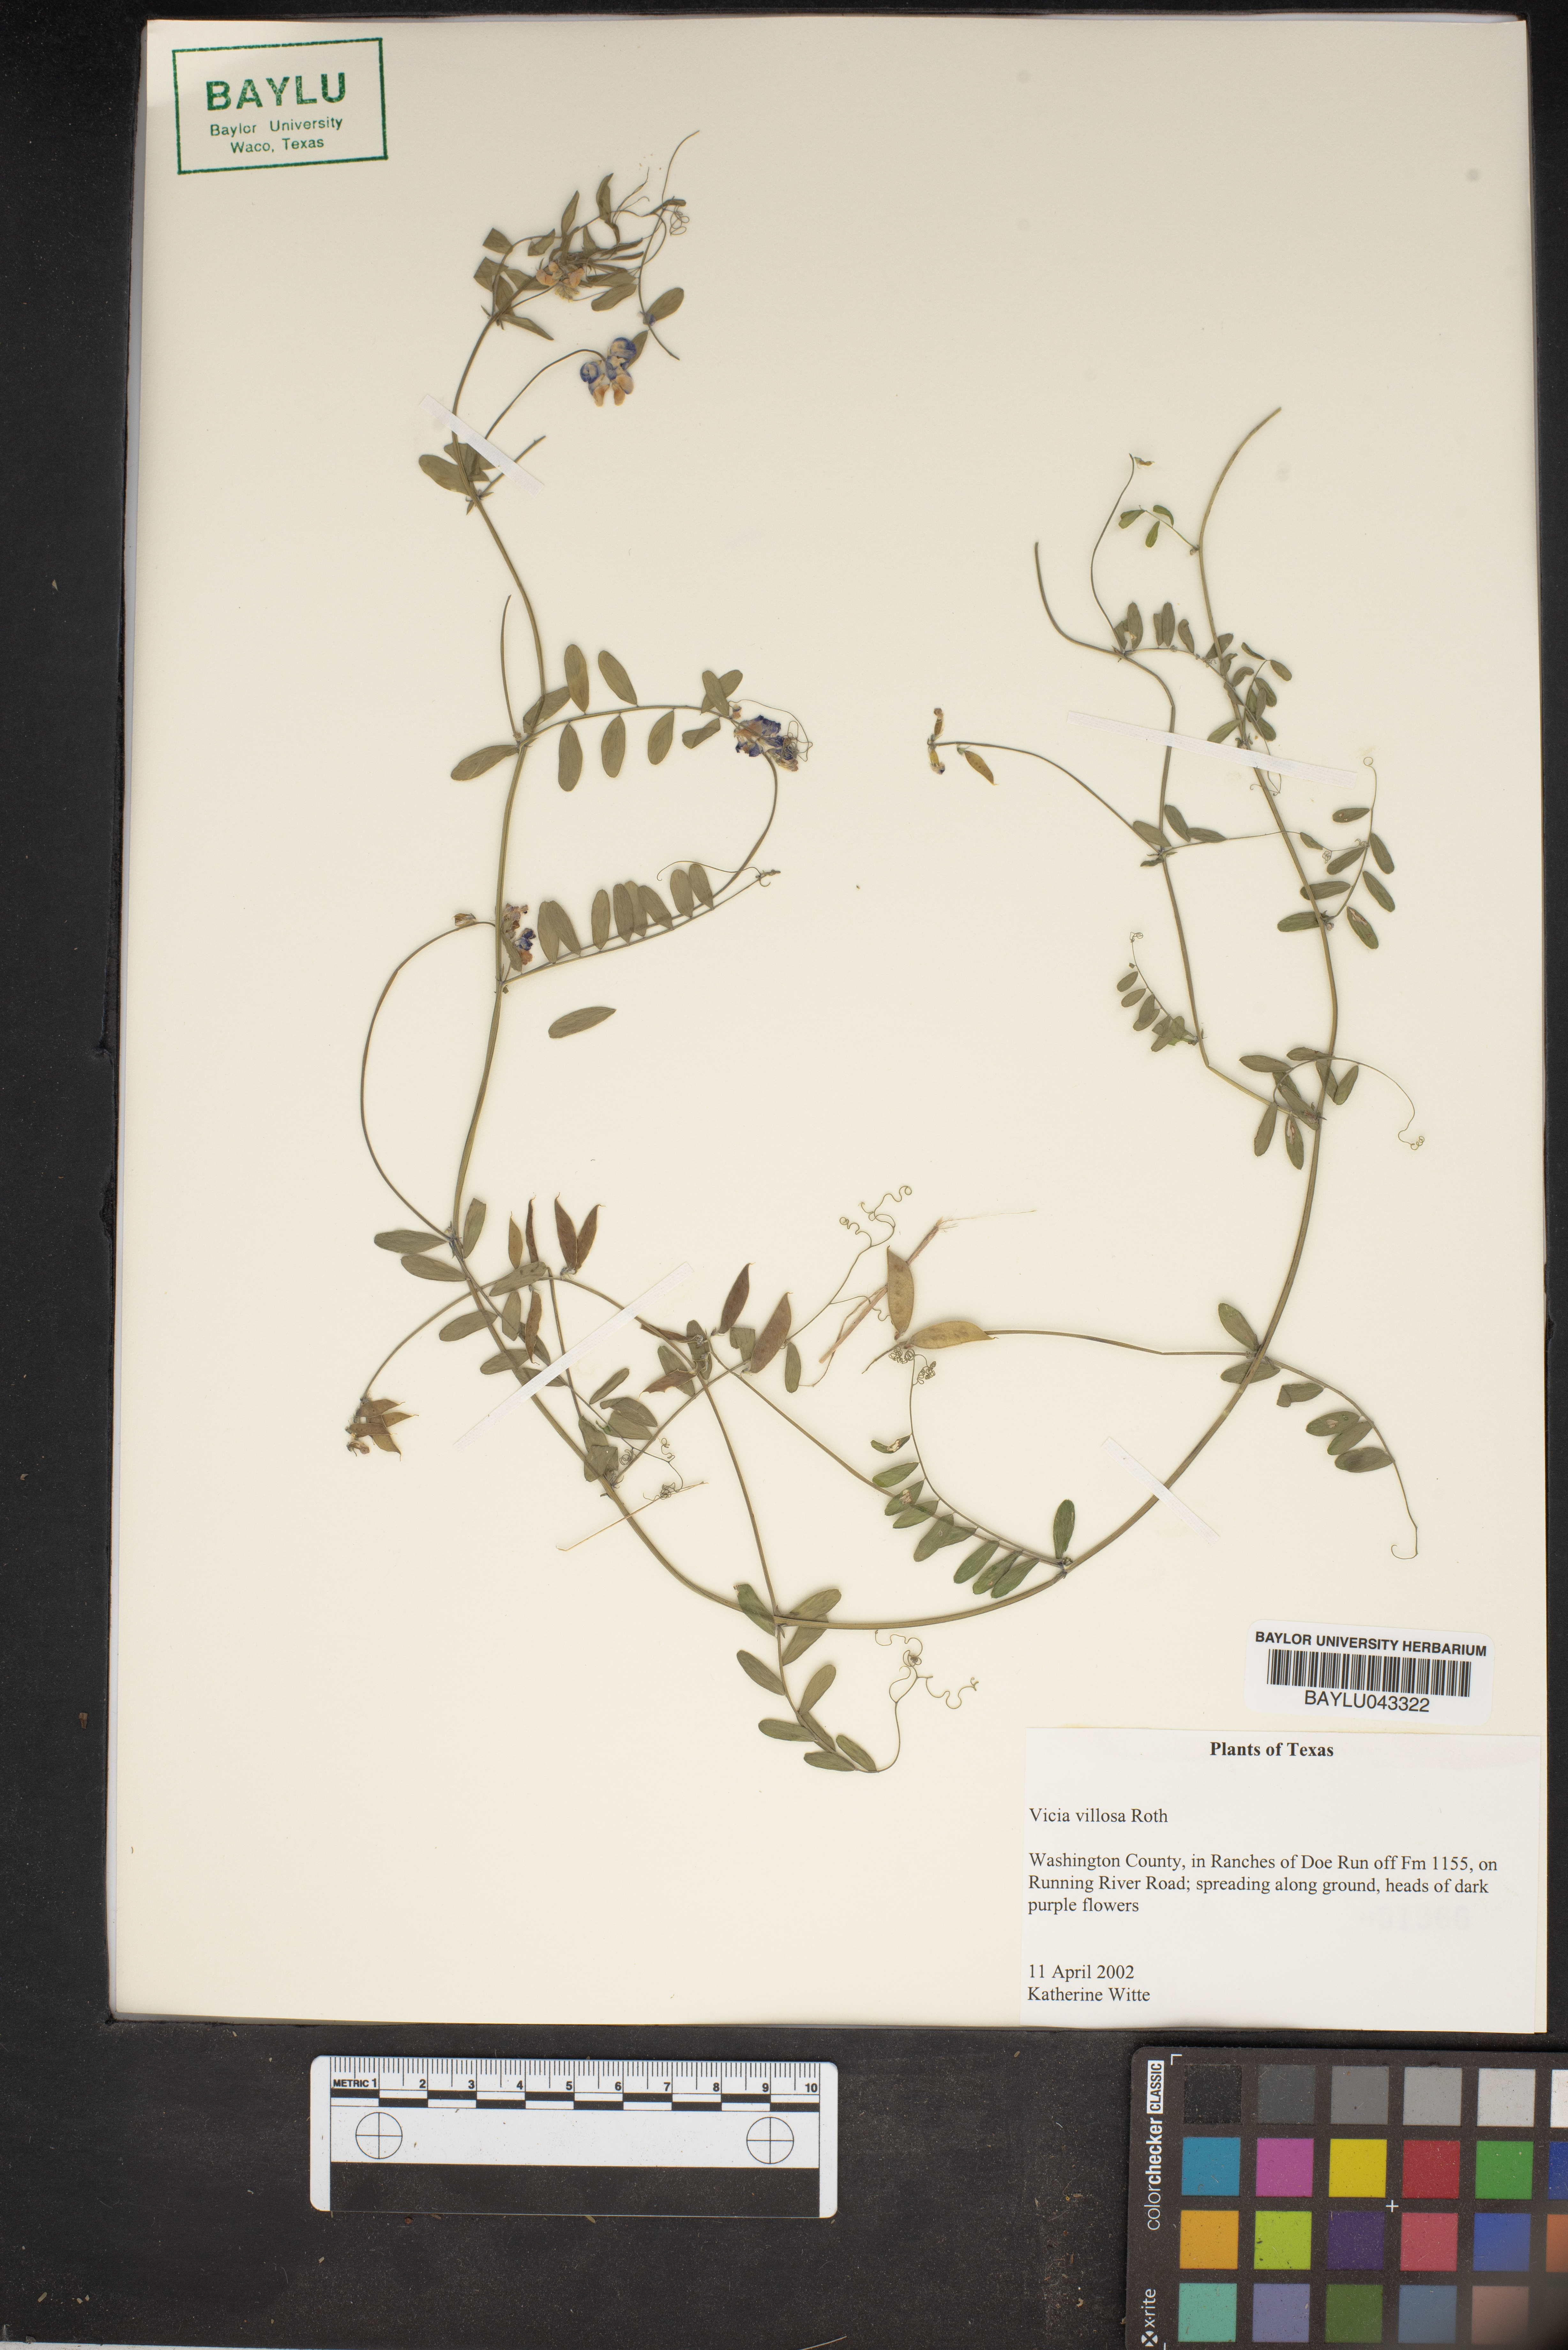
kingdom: Plantae
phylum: Tracheophyta
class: Magnoliopsida
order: Fabales
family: Fabaceae
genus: Vicia
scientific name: Vicia villosa
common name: Fodder vetch
